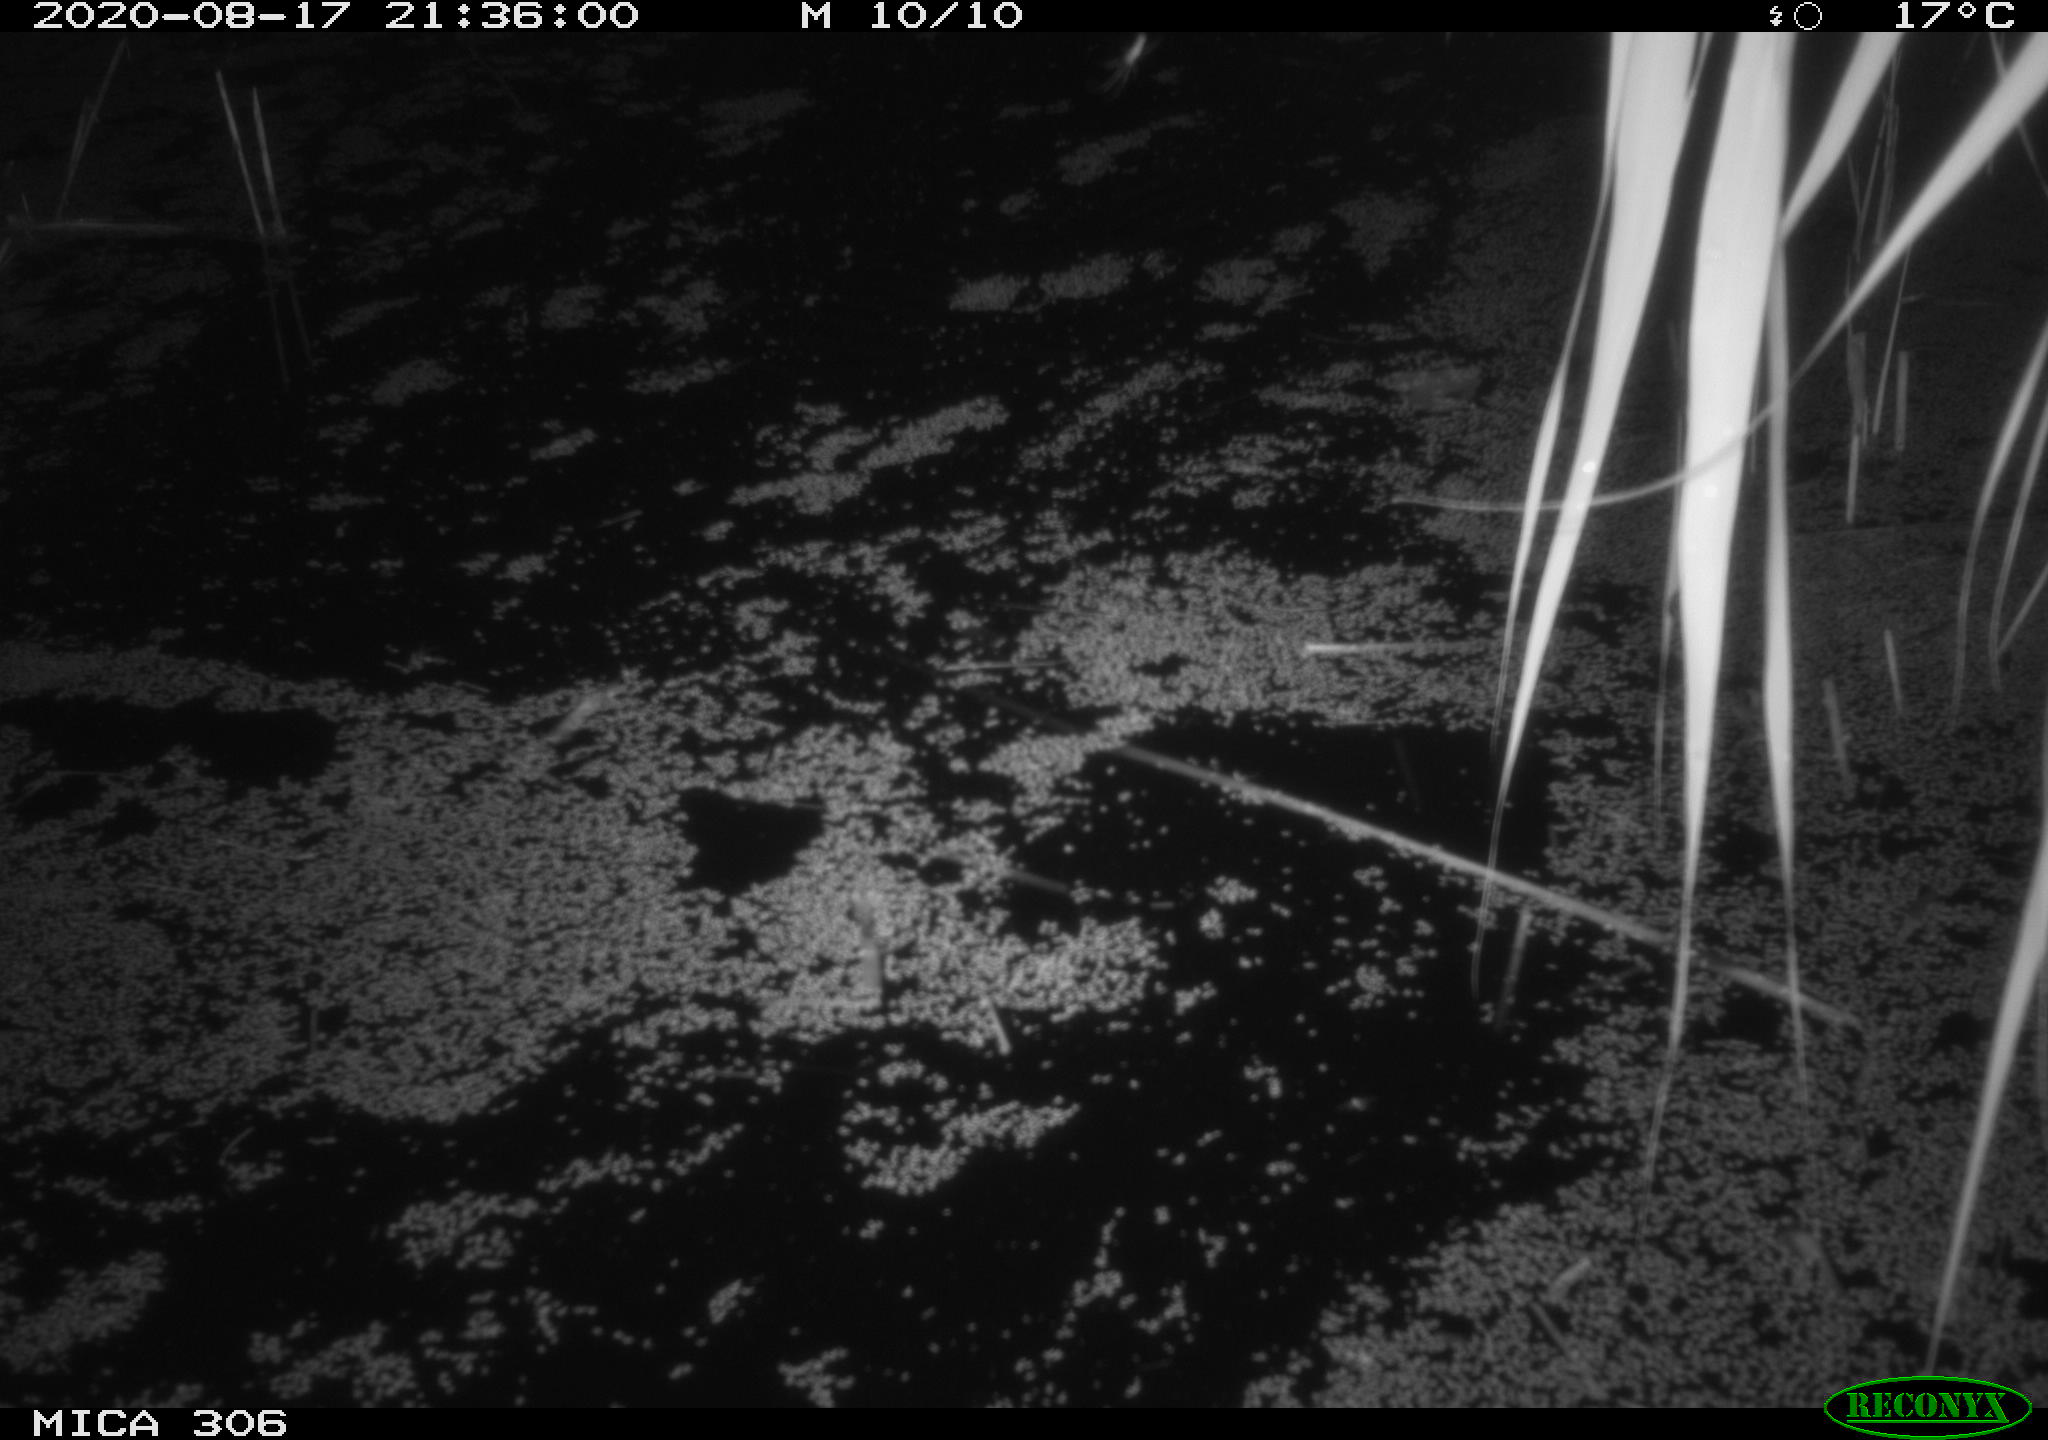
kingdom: Animalia
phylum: Chordata
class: Mammalia
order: Rodentia
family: Muridae
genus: Rattus
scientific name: Rattus norvegicus
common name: Brown rat
